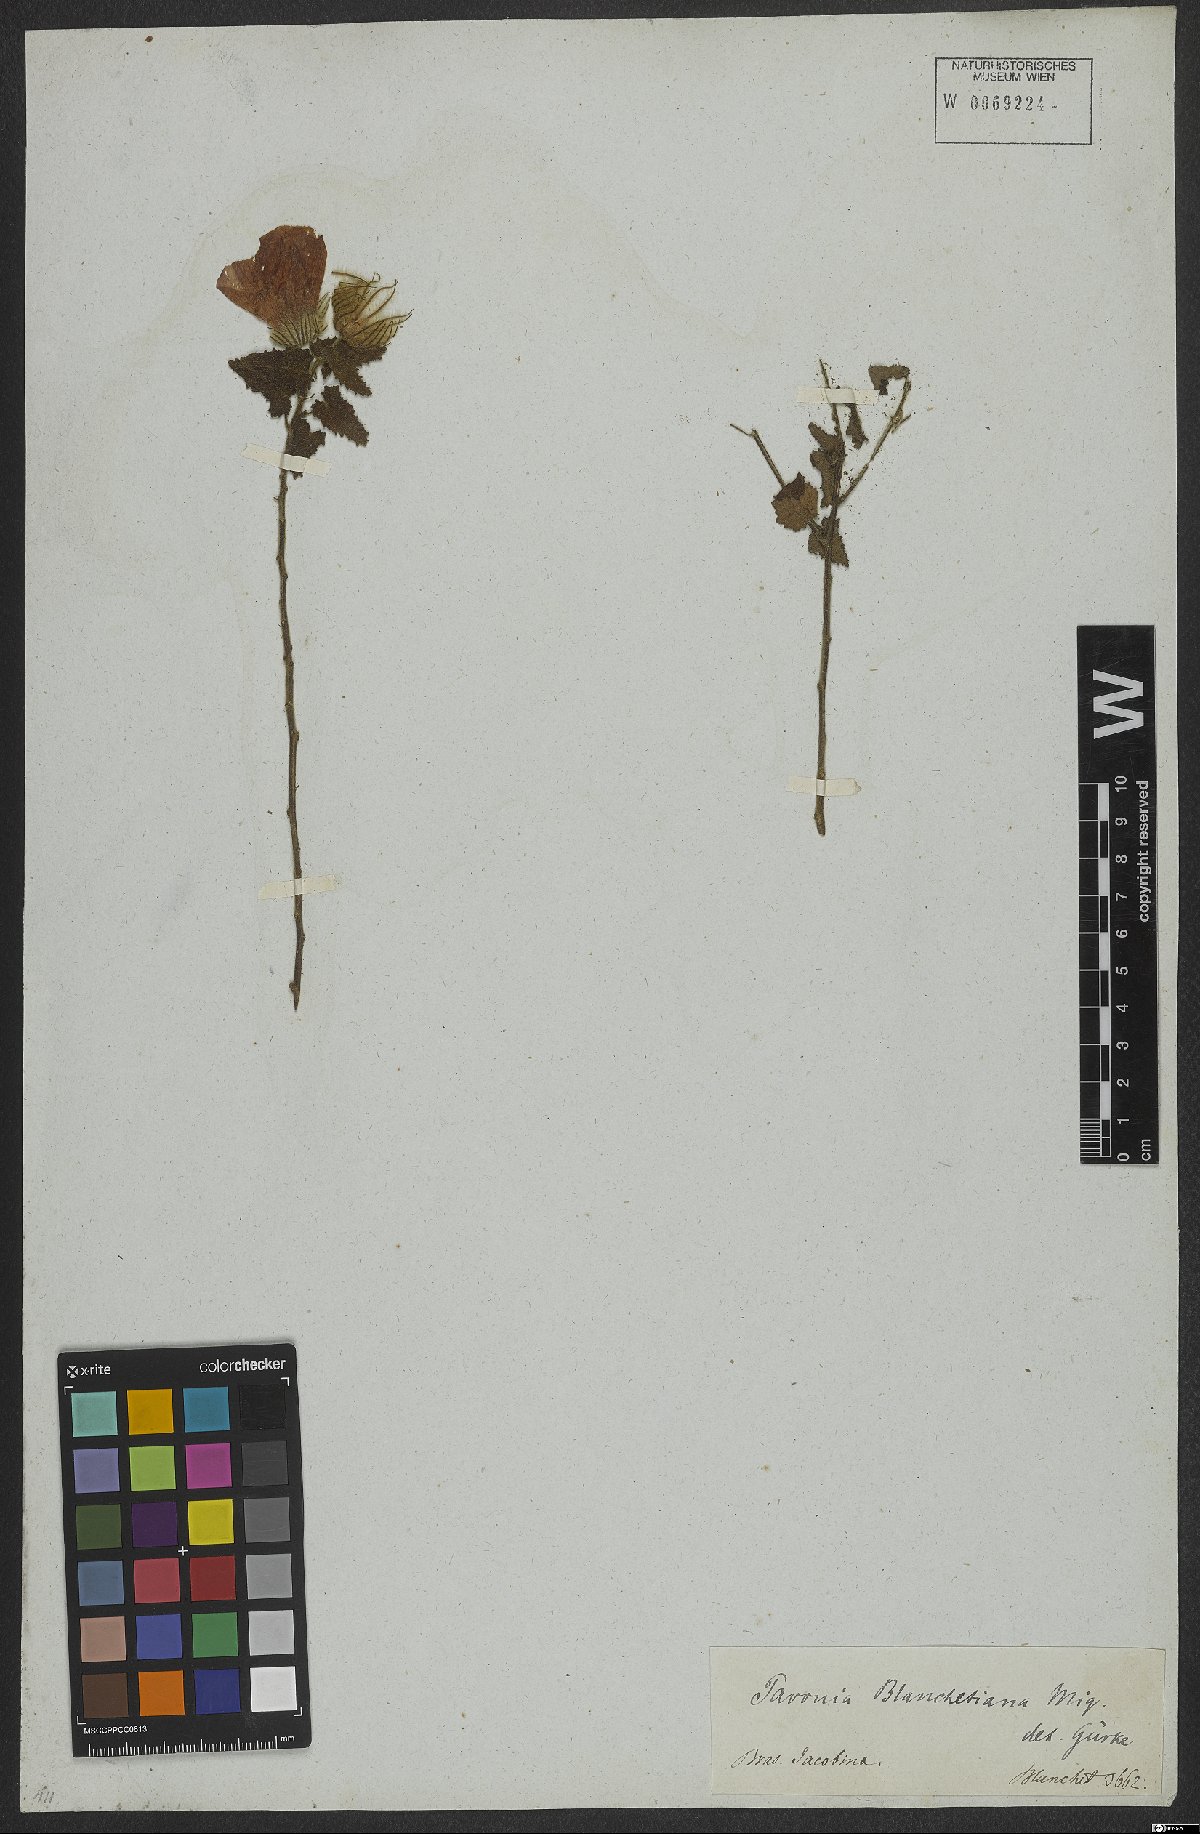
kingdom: Plantae
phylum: Tracheophyta
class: Magnoliopsida
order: Malvales
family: Malvaceae
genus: Pavonia
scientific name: Pavonia blanchetiana
